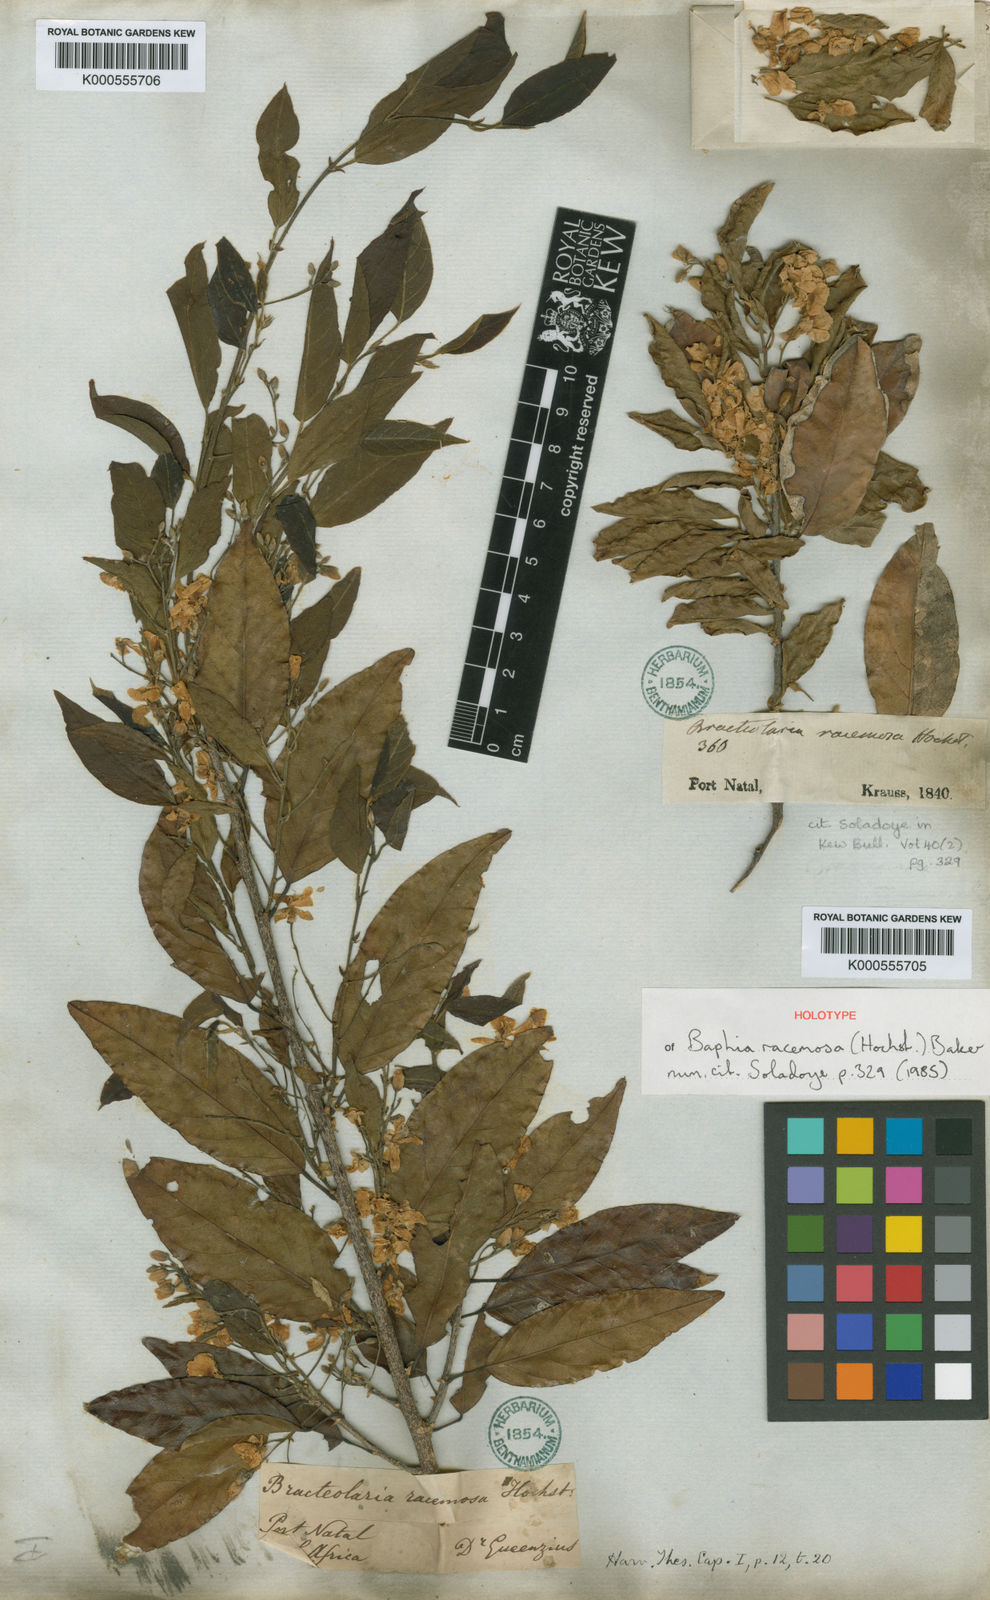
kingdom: Plantae
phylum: Tracheophyta
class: Magnoliopsida
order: Fabales
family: Fabaceae
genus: Bracteolaria
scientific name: Bracteolaria racemosa
